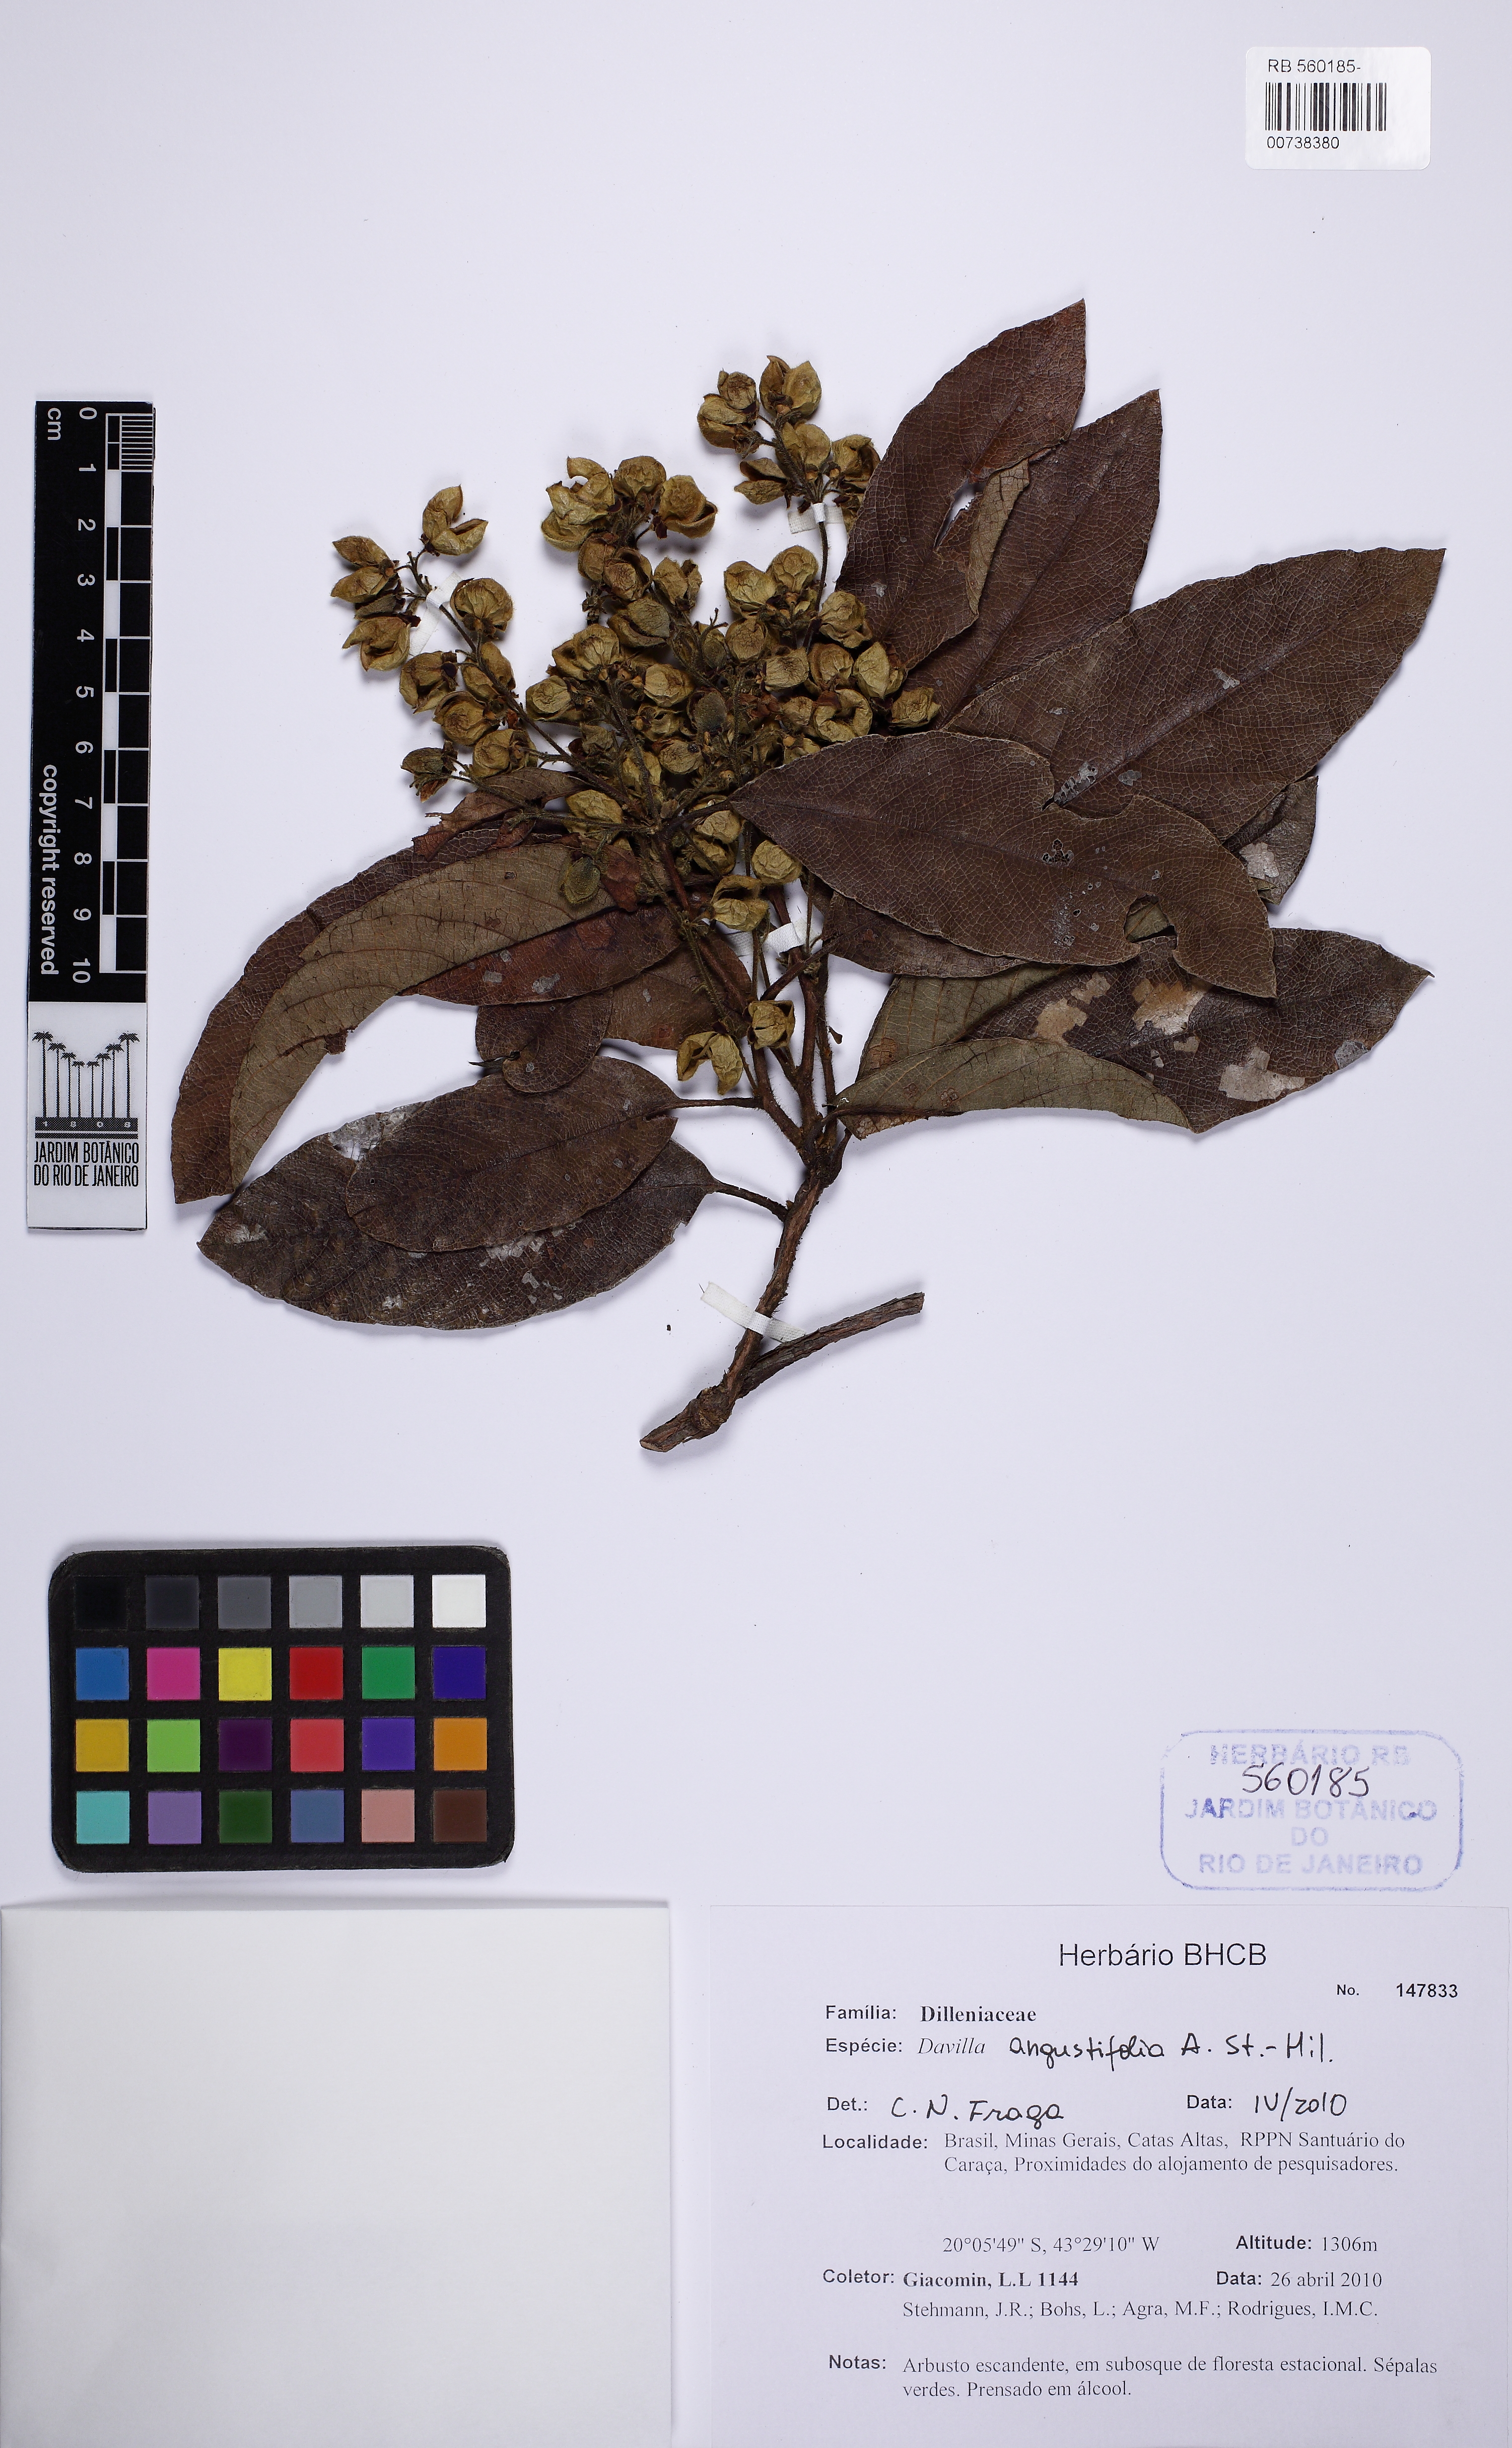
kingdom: Plantae
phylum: Tracheophyta
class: Magnoliopsida
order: Dilleniales
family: Dilleniaceae
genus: Davilla
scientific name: Davilla angustifolia
